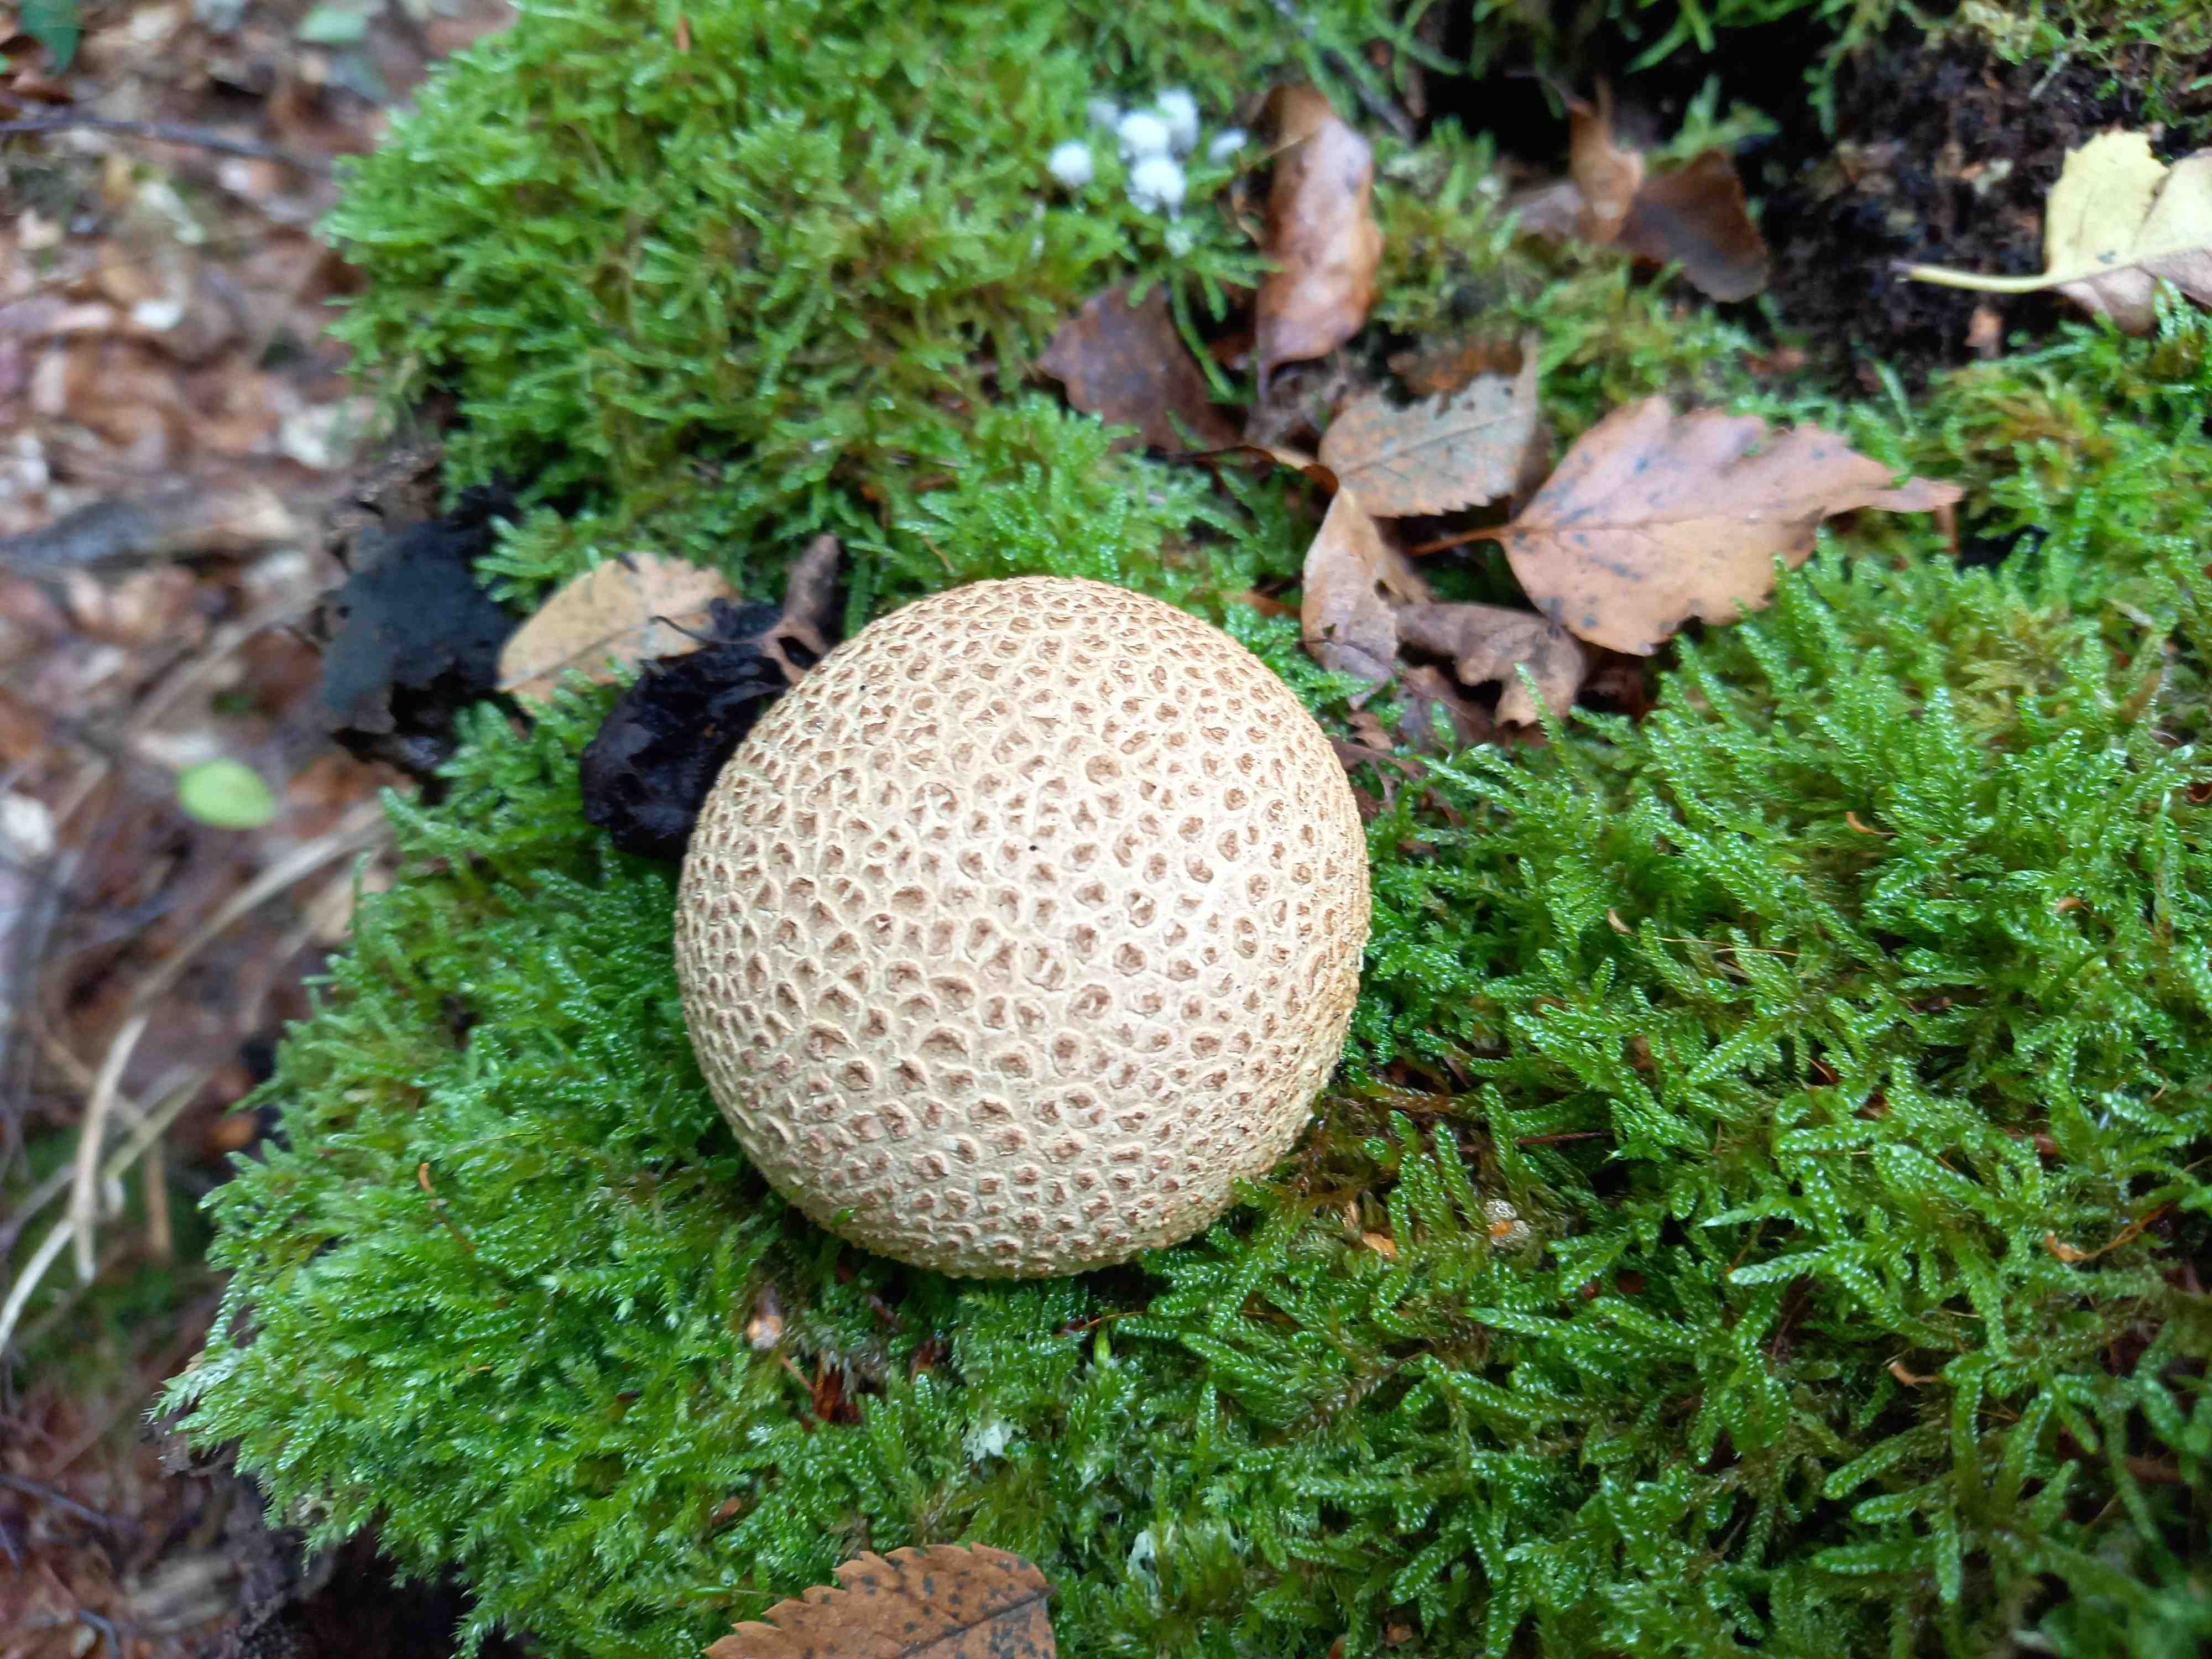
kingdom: Fungi
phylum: Basidiomycota
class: Agaricomycetes
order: Boletales
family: Sclerodermataceae
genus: Scleroderma
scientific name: Scleroderma citrinum
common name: almindelig bruskbold
